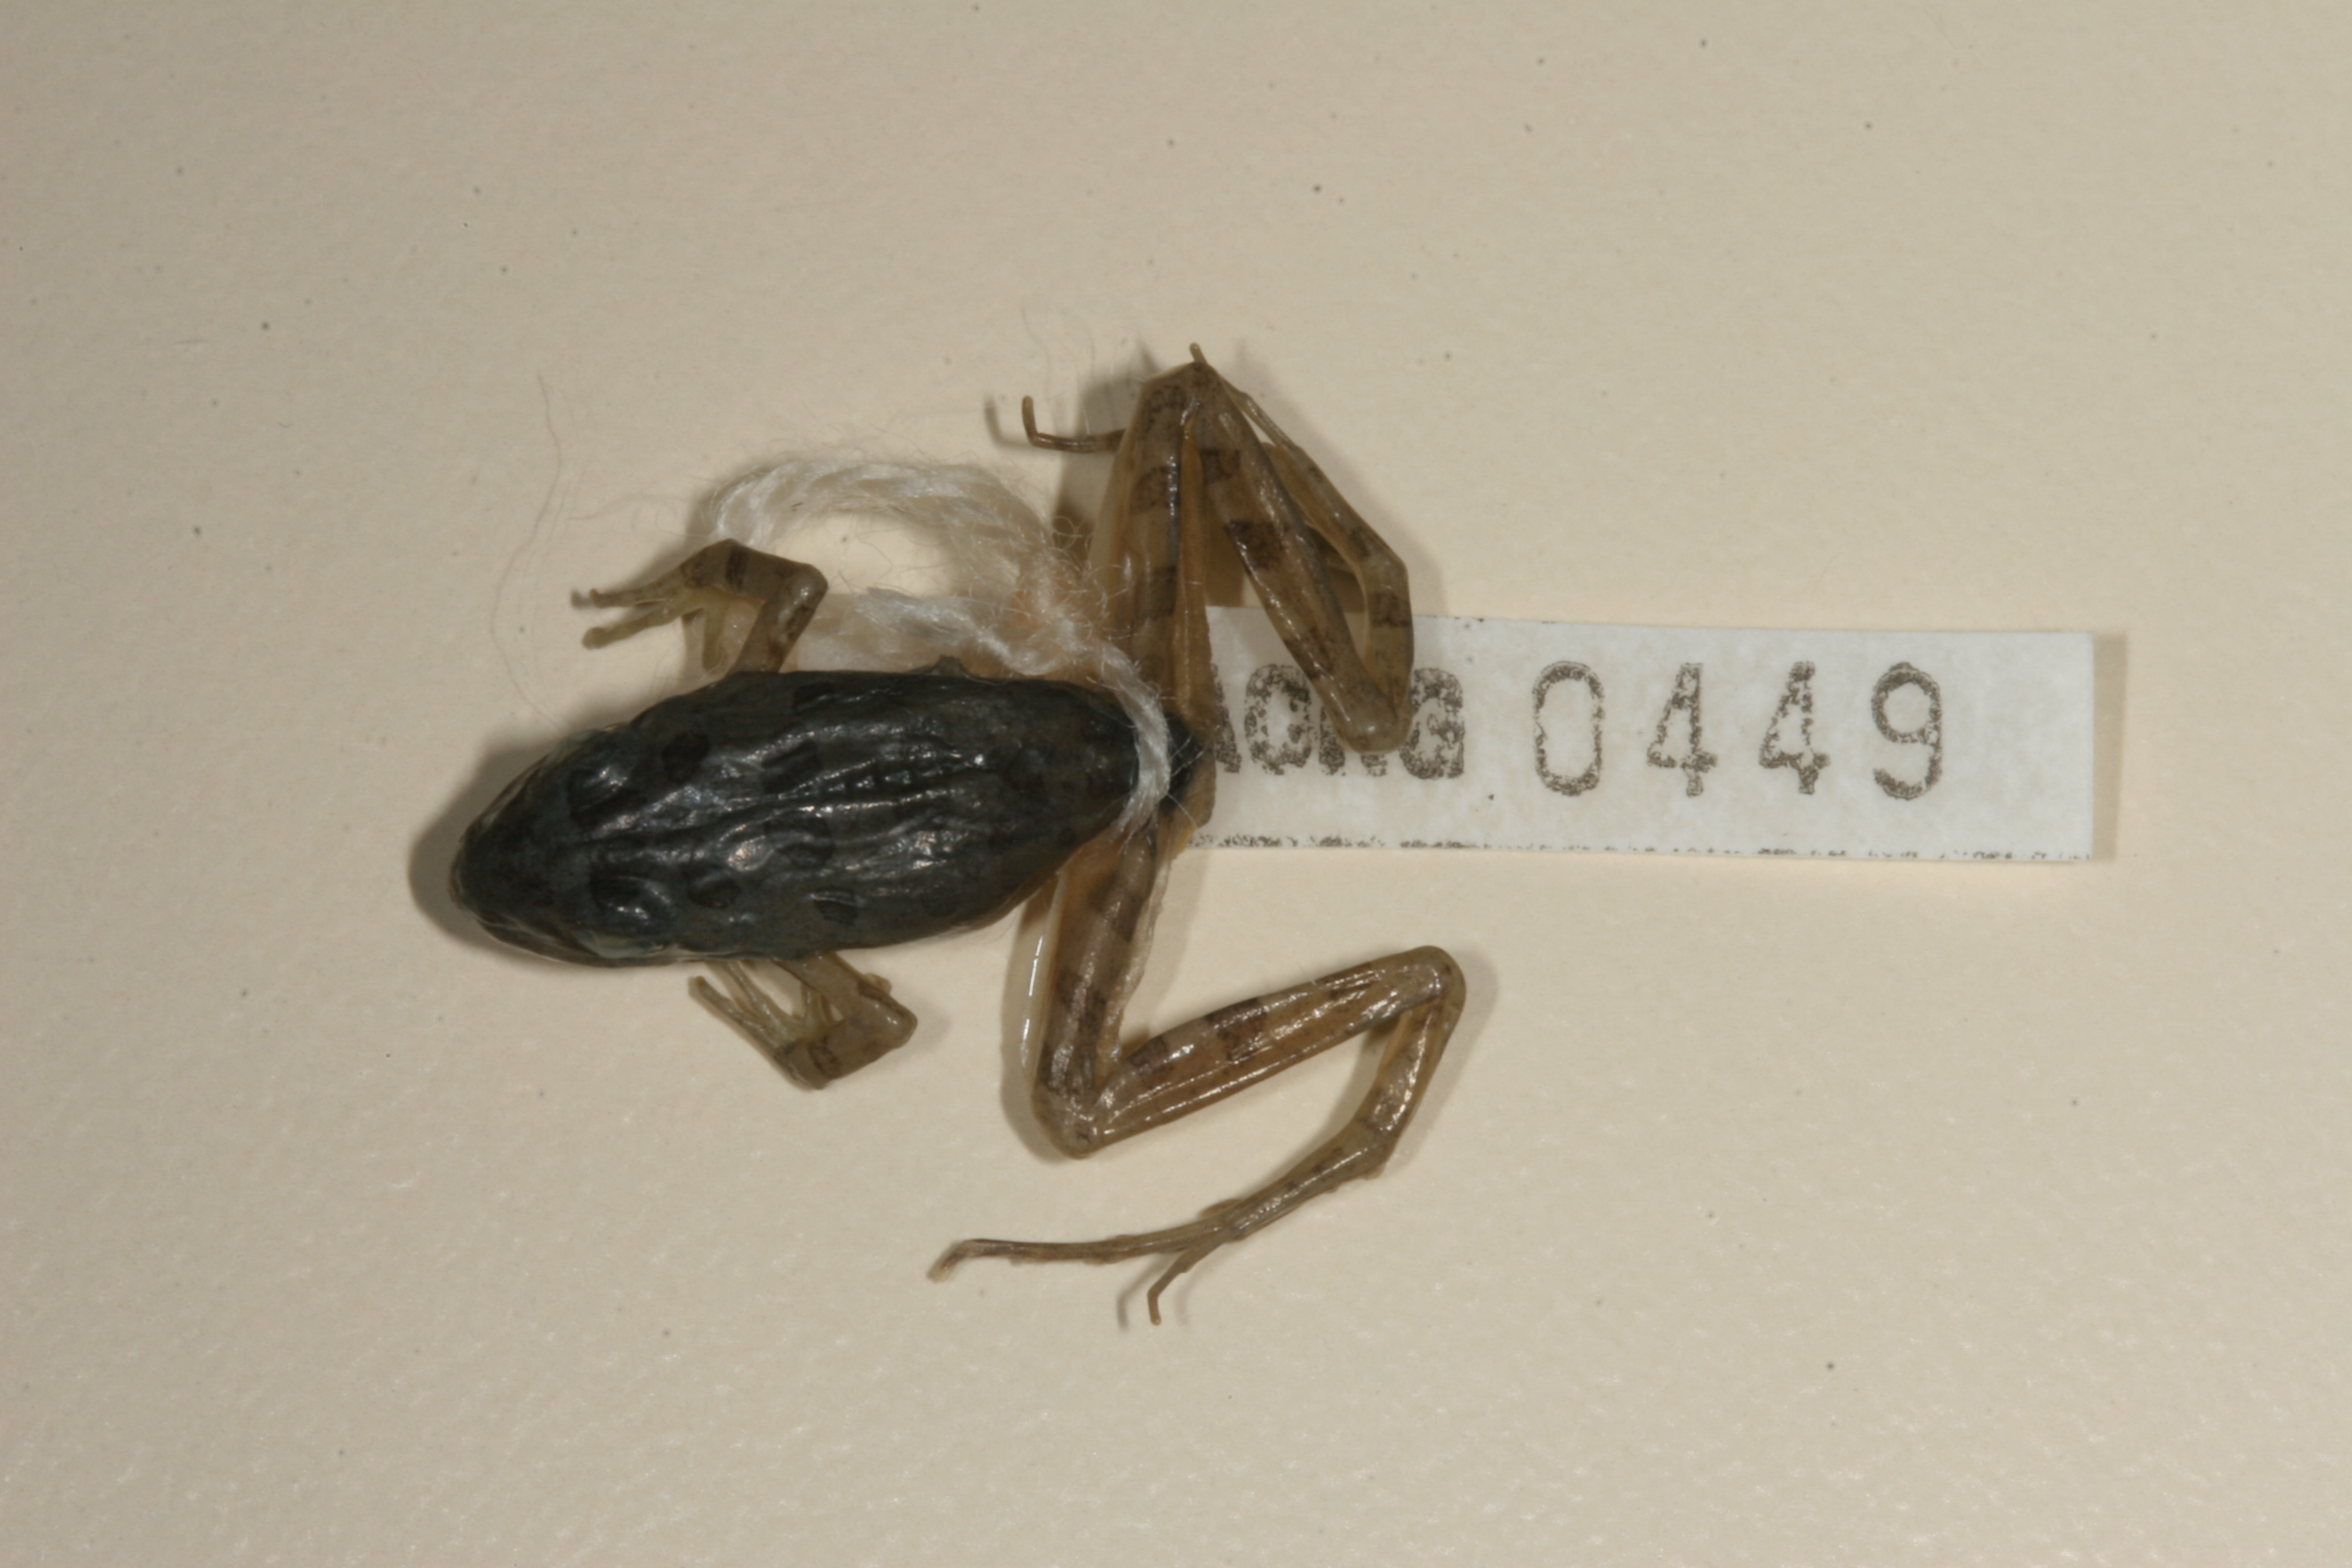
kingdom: Animalia
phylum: Chordata
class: Amphibia
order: Anura
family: Pyxicephalidae
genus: Strongylopus
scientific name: Strongylopus grayii
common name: Gray's stream frog
